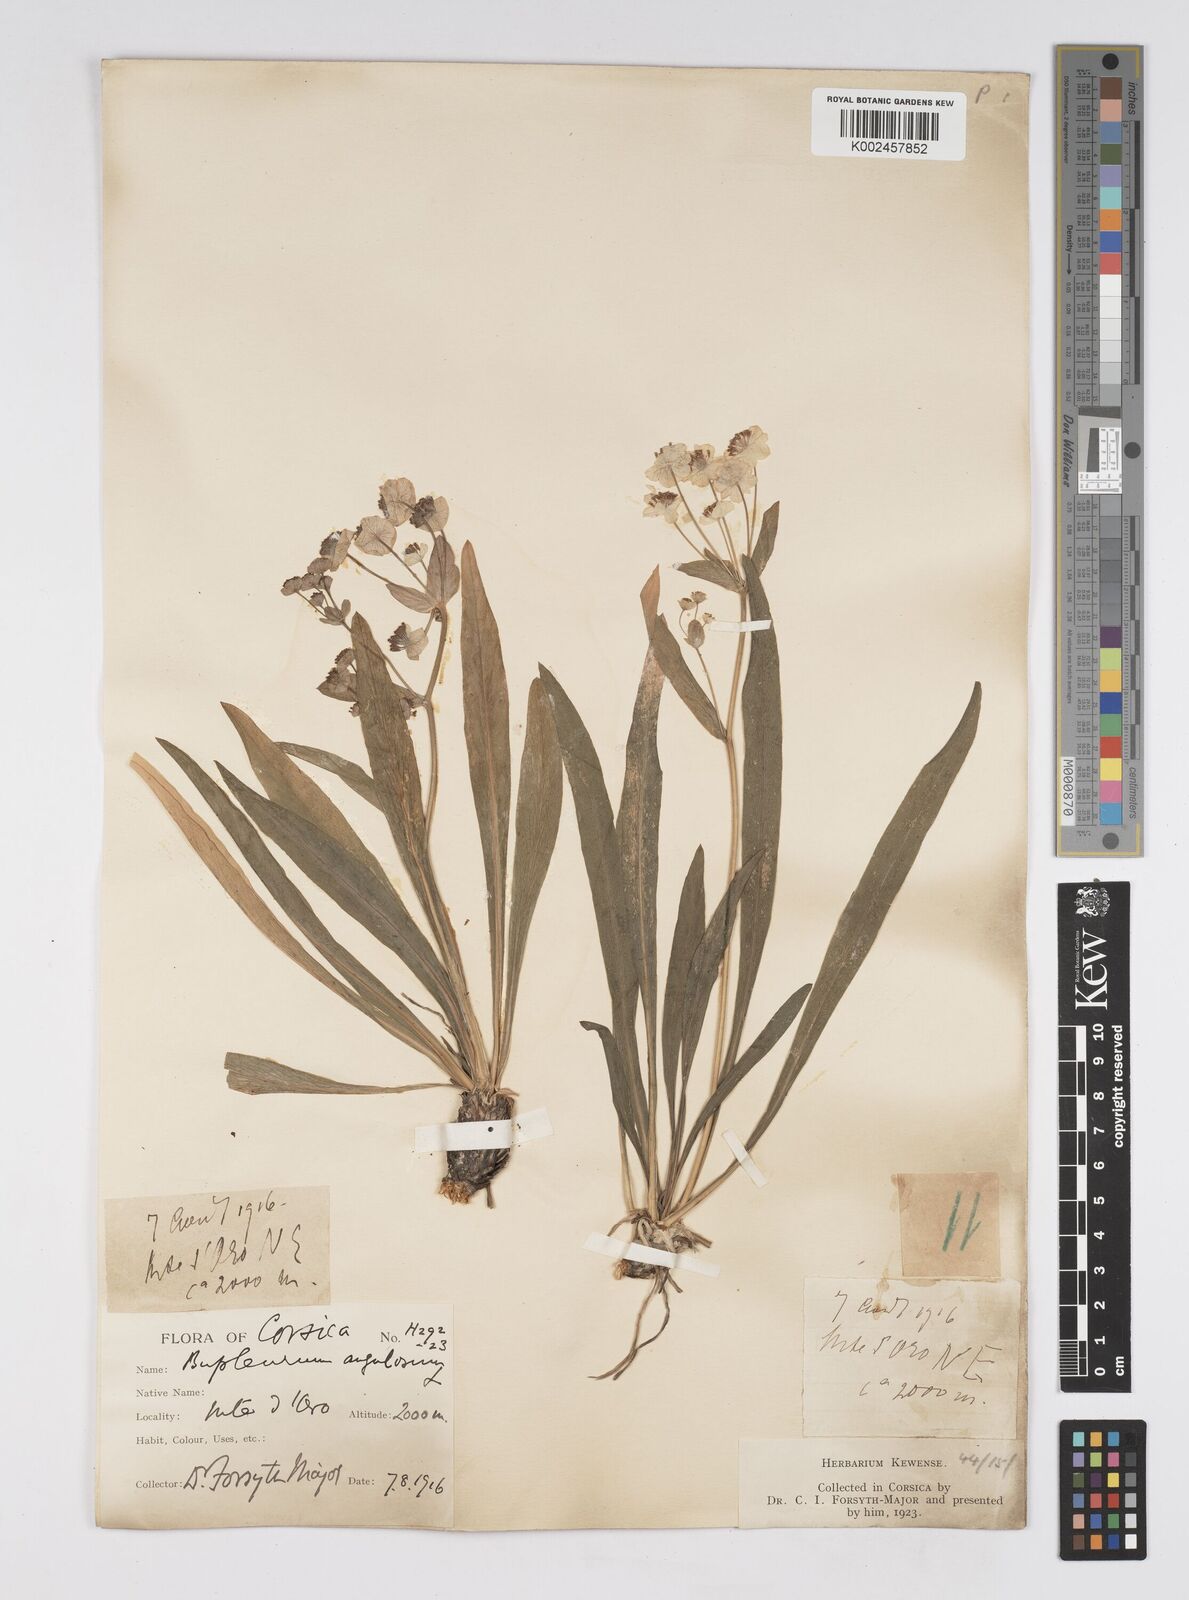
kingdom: Plantae
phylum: Tracheophyta
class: Magnoliopsida
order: Apiales
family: Apiaceae
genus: Bupleurum
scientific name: Bupleurum stellatum
